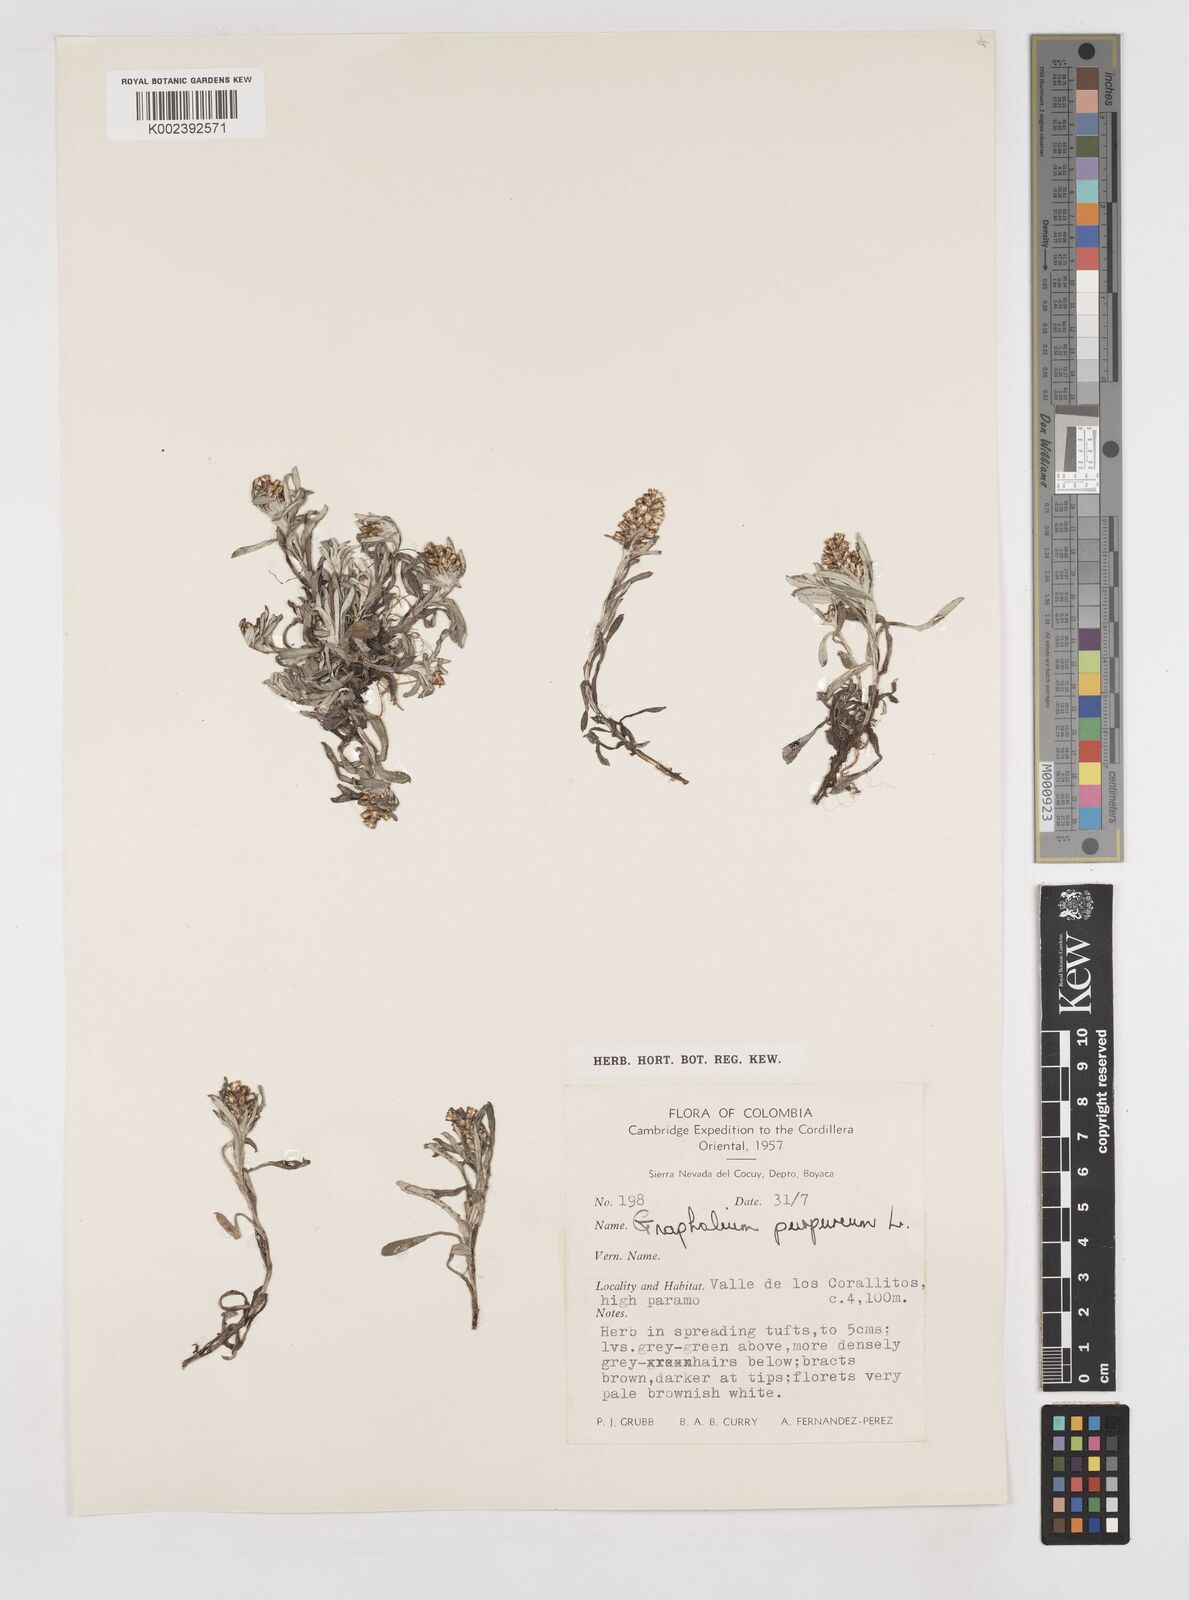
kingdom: Plantae
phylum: Tracheophyta
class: Magnoliopsida
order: Asterales
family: Asteraceae
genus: Pseudognaphalium
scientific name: Pseudognaphalium purpurascens
